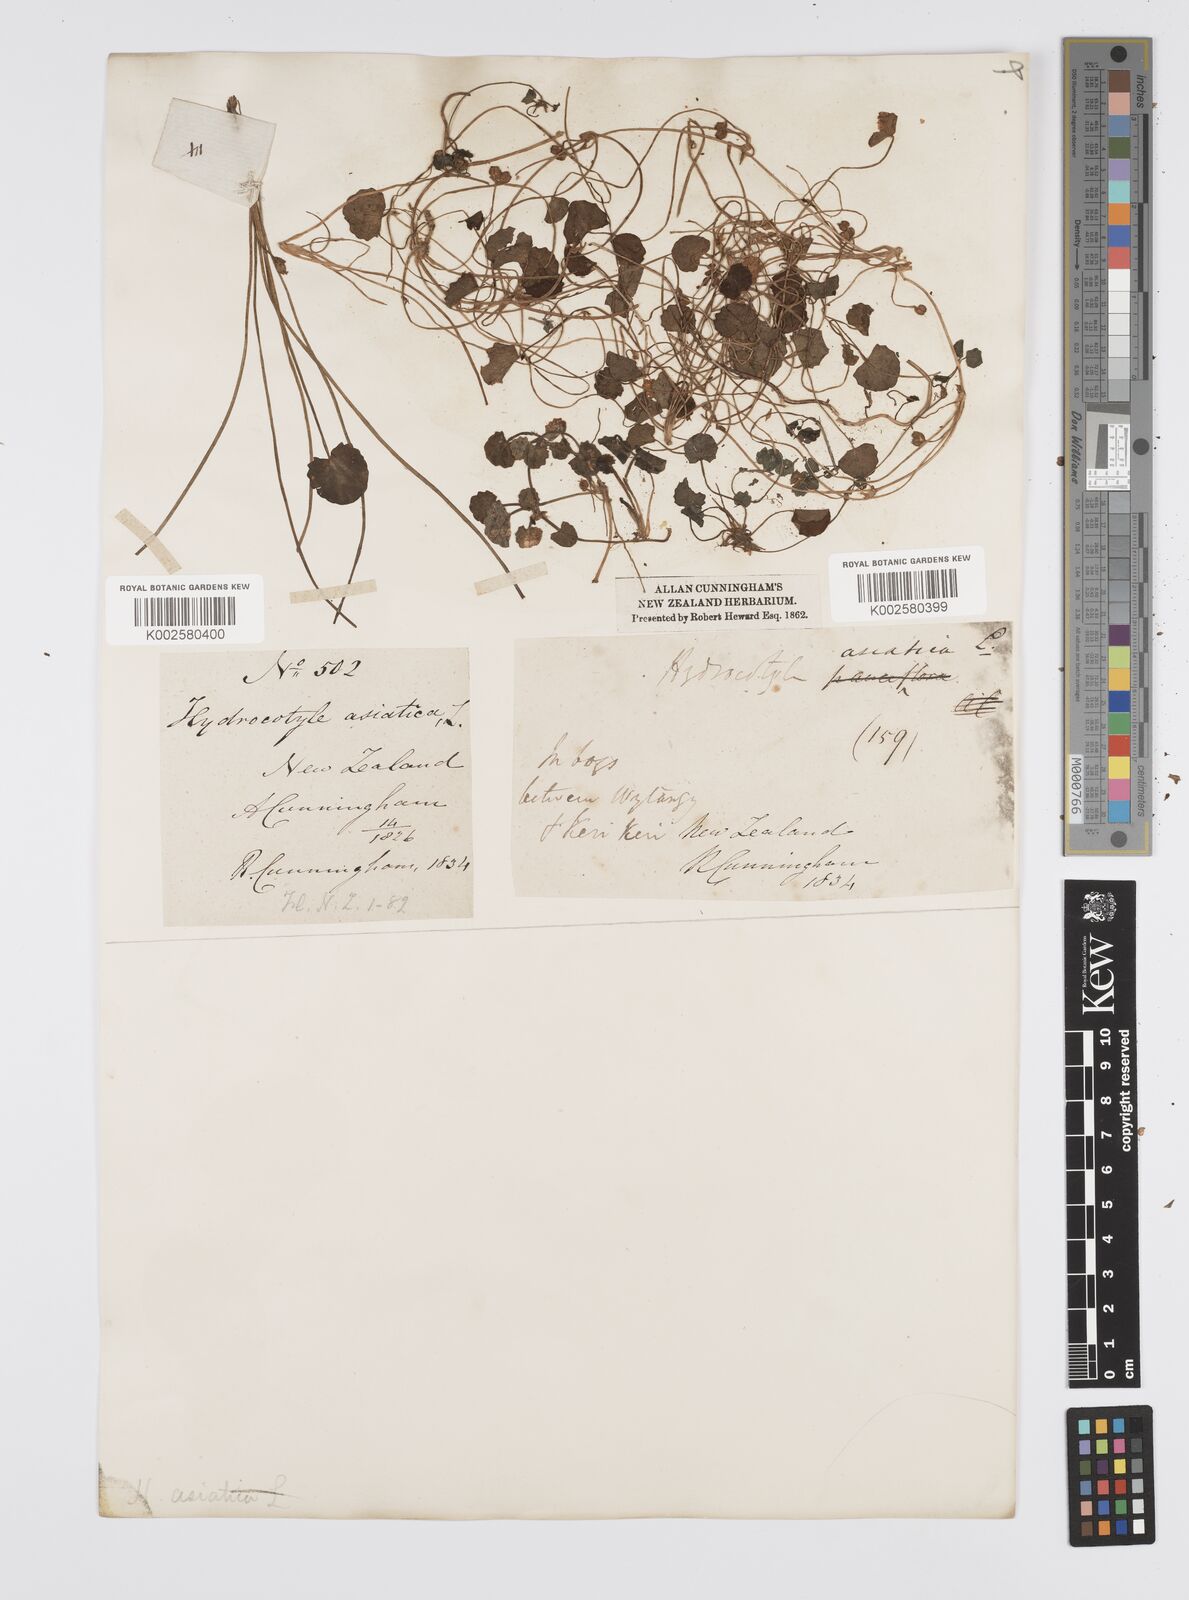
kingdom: Plantae
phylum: Tracheophyta
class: Magnoliopsida
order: Apiales
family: Apiaceae
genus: Centella
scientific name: Centella uniflora
